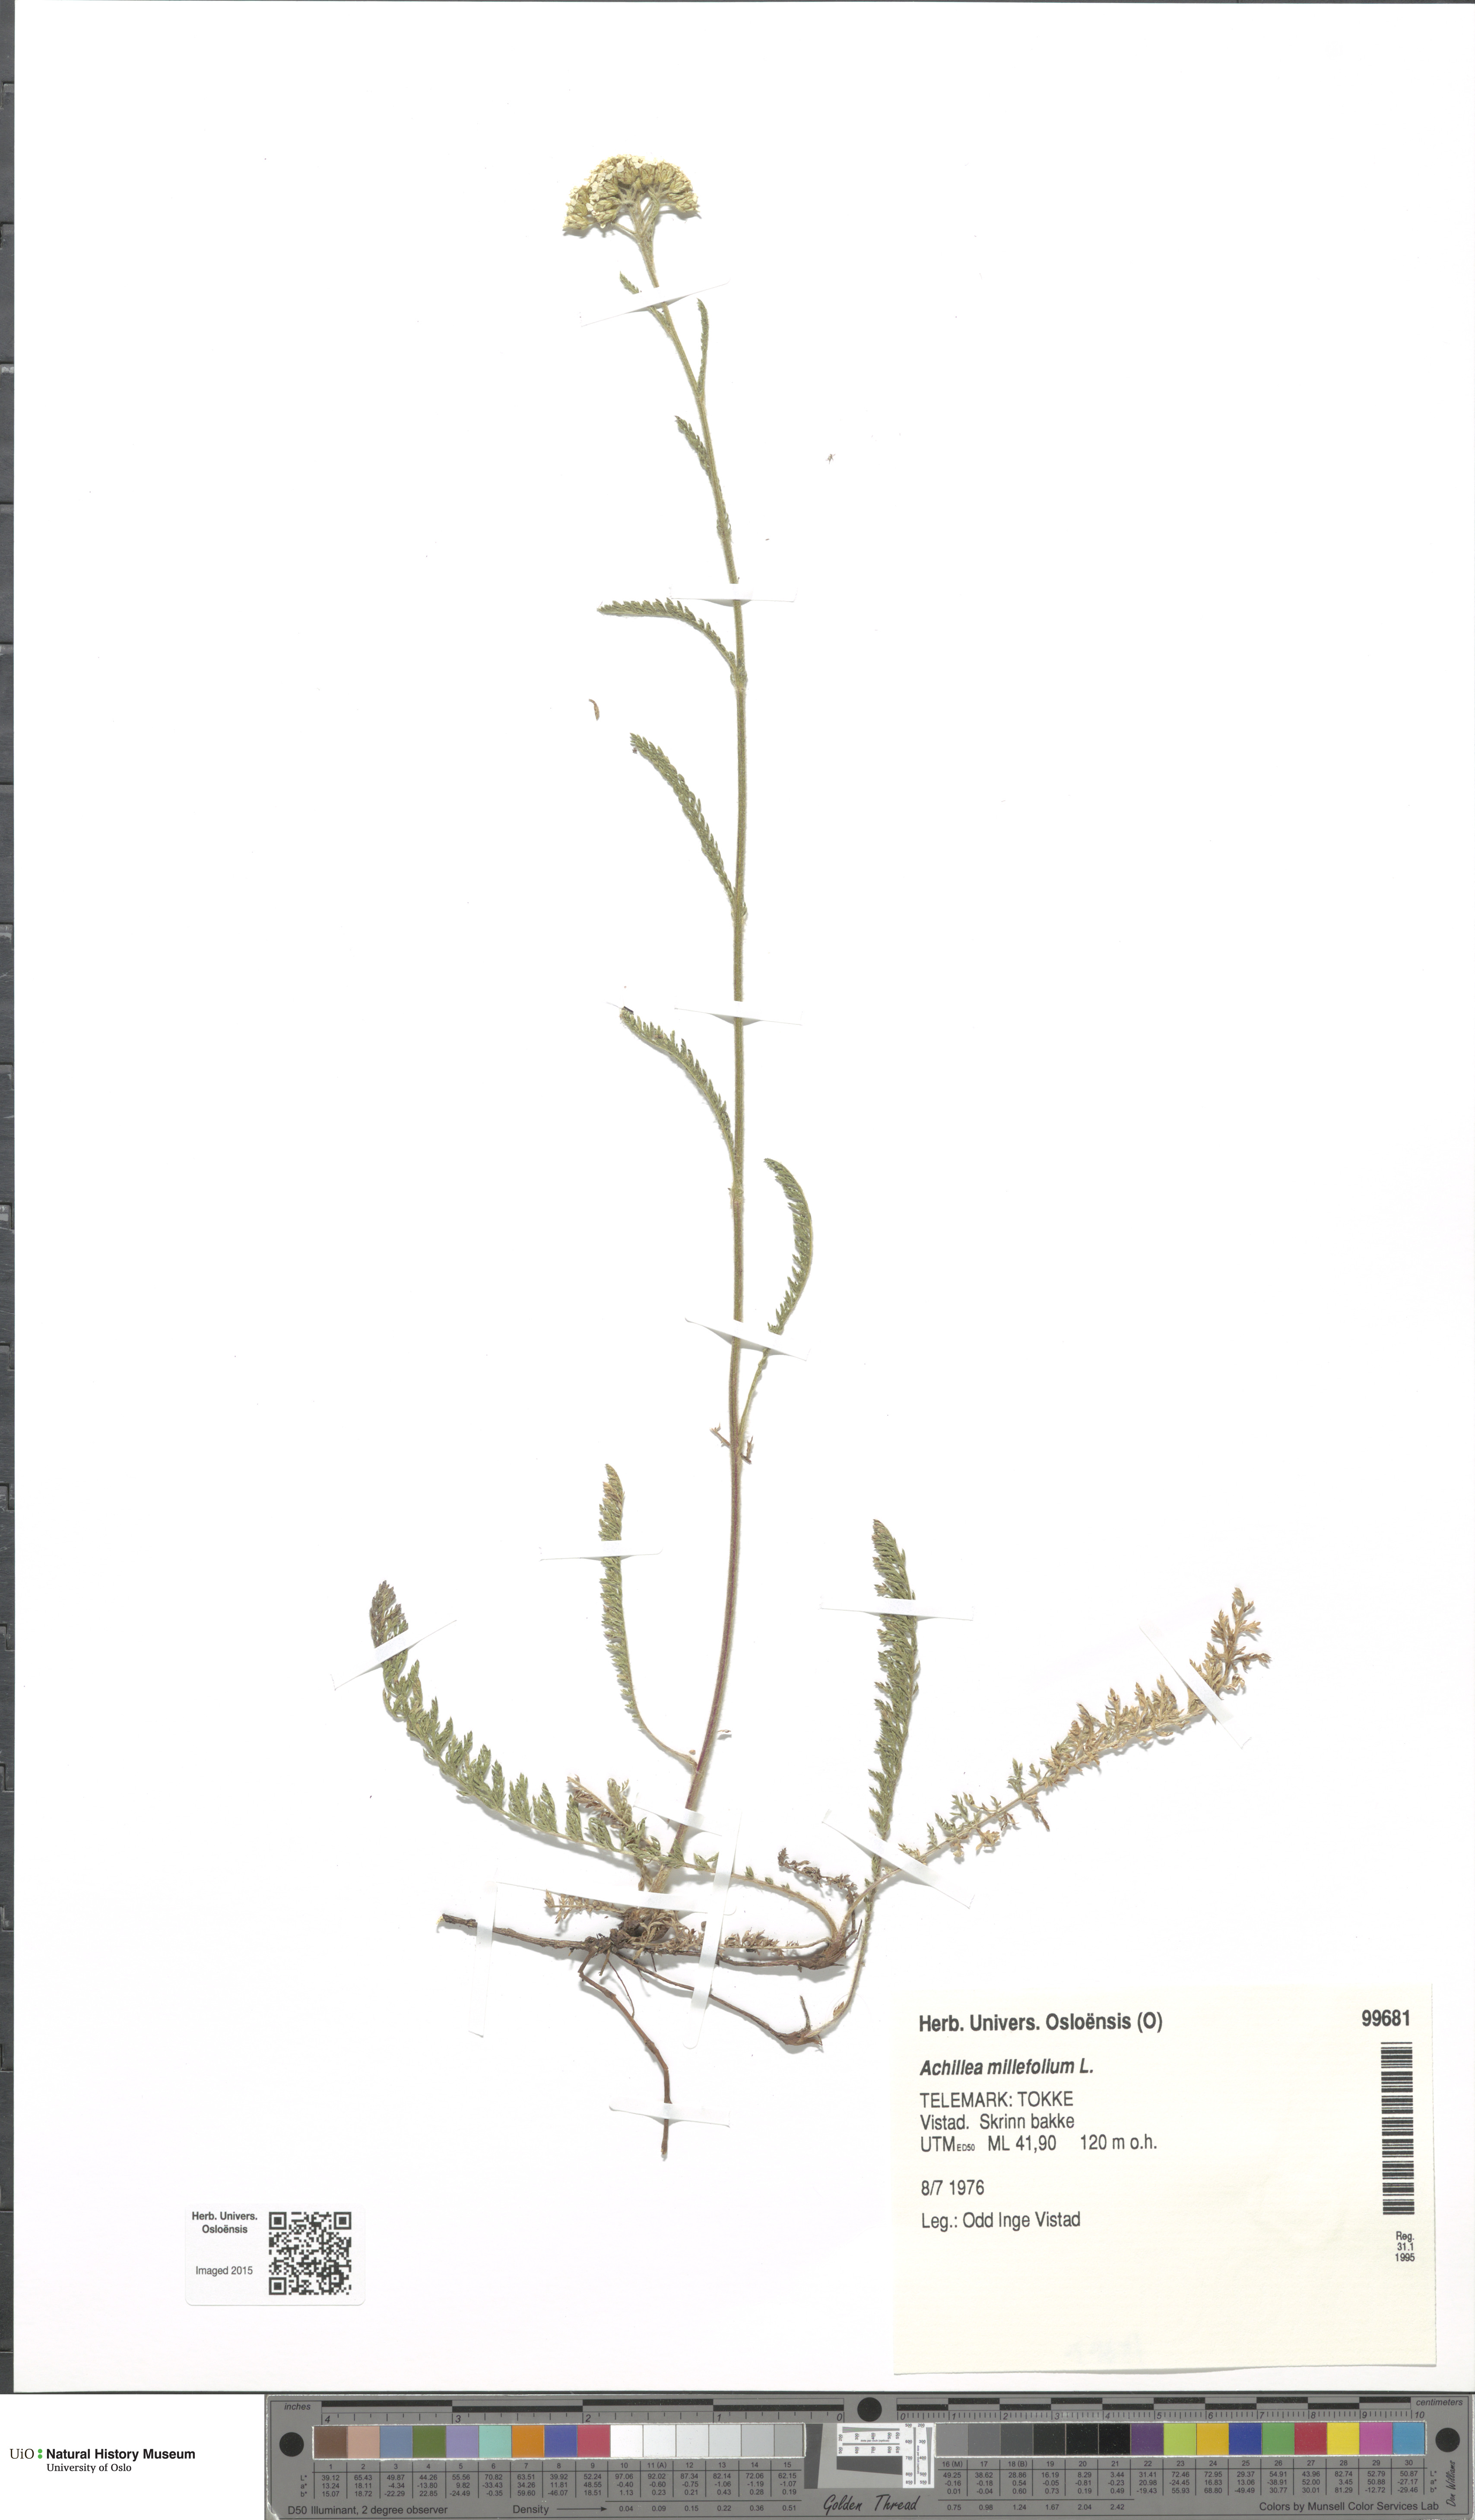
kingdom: Plantae
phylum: Tracheophyta
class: Magnoliopsida
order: Asterales
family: Asteraceae
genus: Achillea
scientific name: Achillea millefolium
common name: Yarrow
